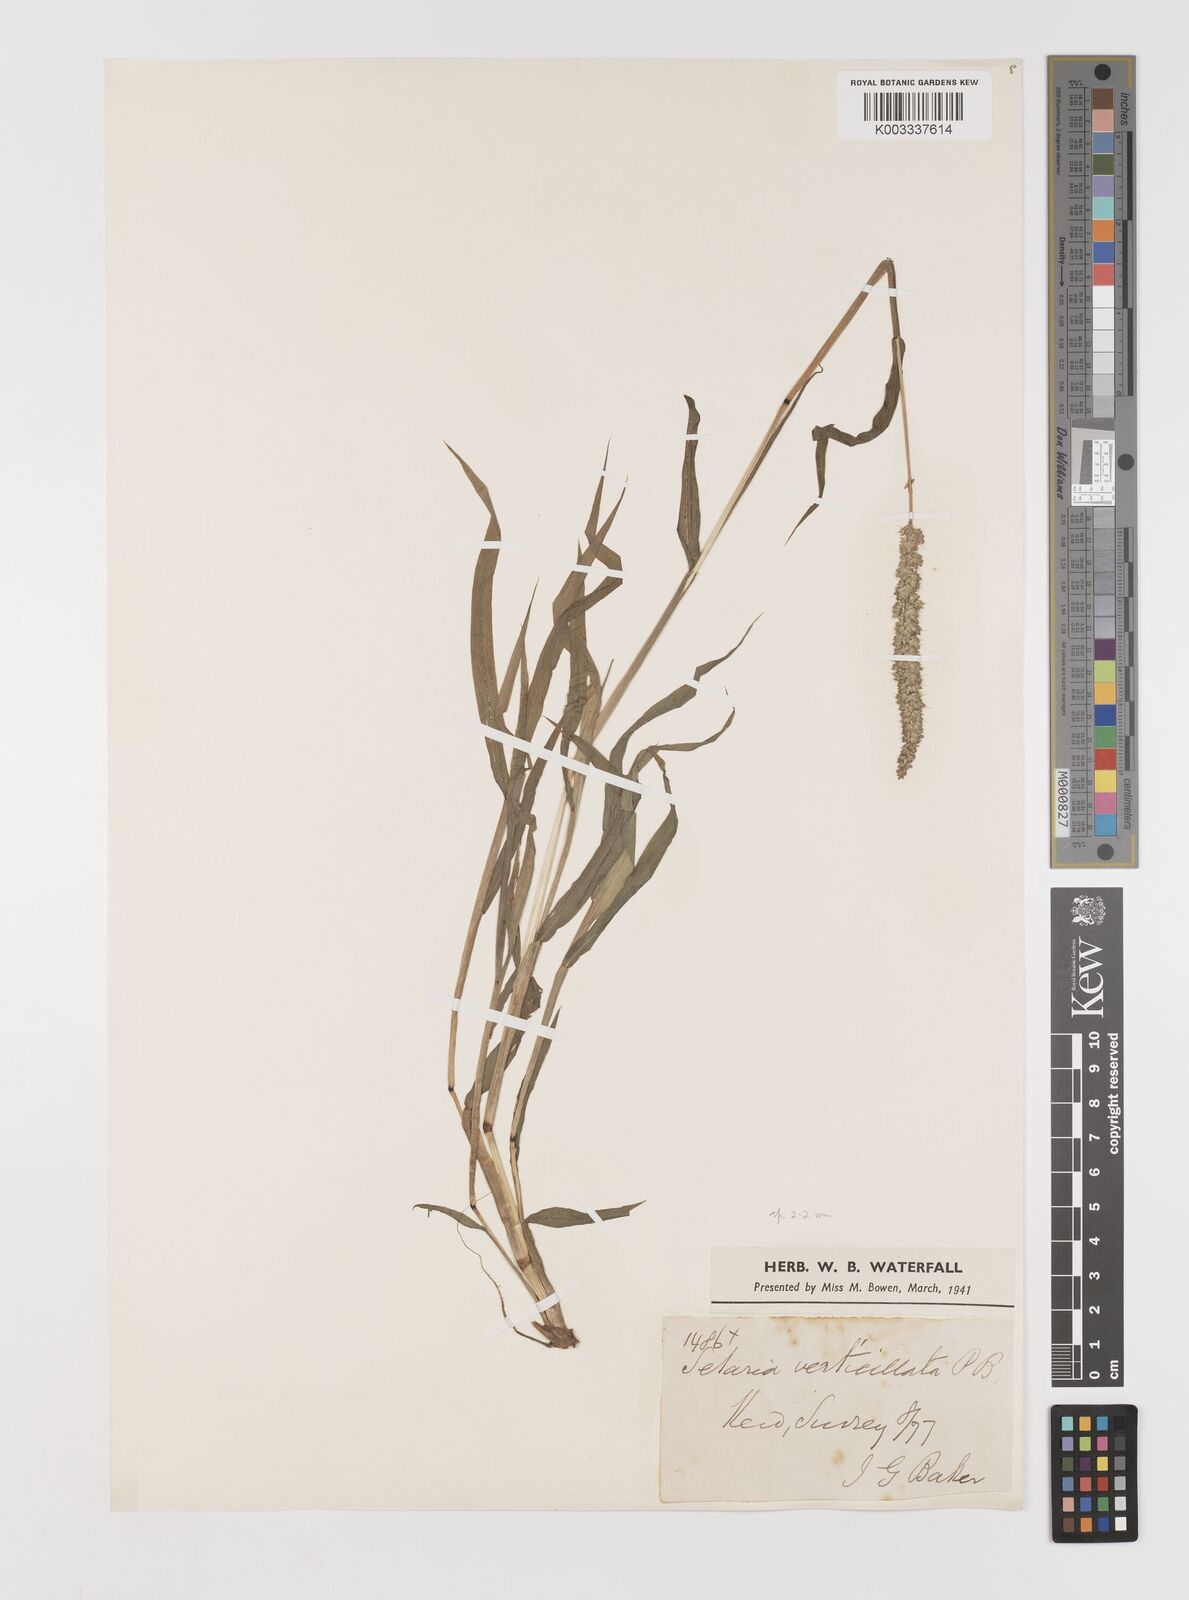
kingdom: Plantae
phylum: Tracheophyta
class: Liliopsida
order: Poales
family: Poaceae
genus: Setaria
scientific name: Setaria verticillata
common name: Hooked bristlegrass
